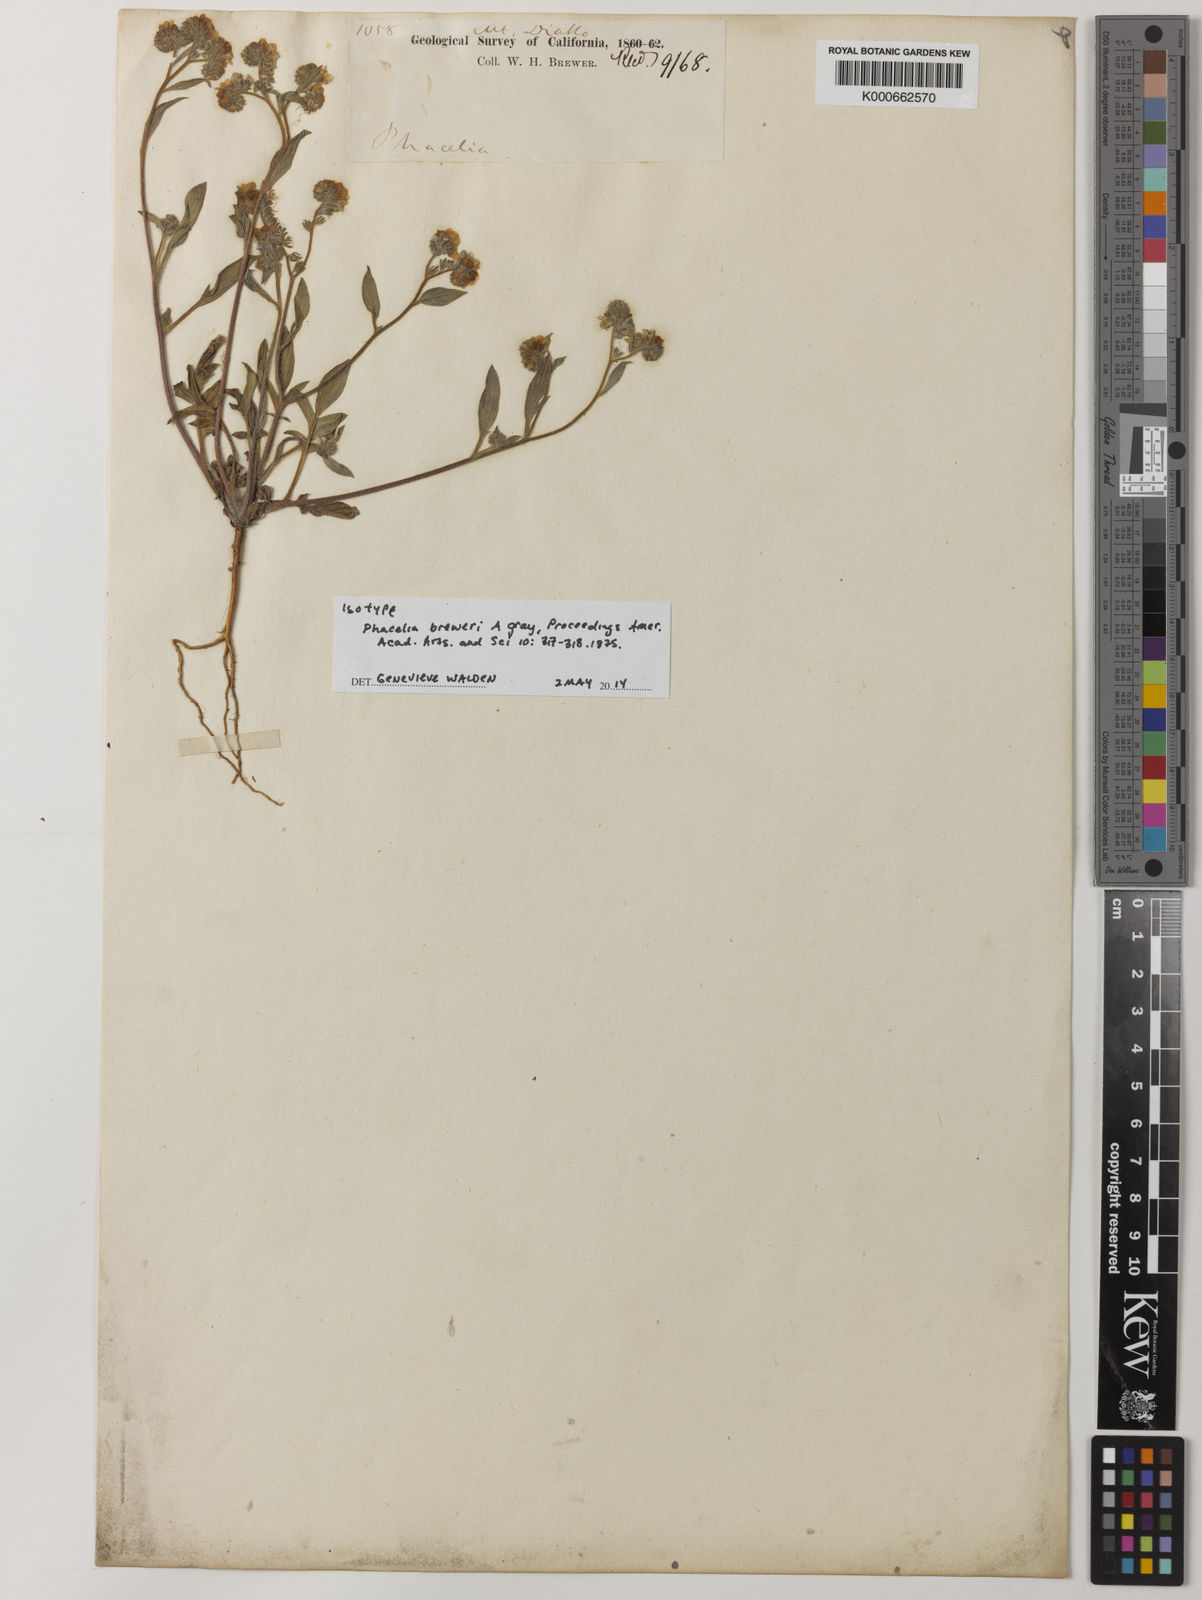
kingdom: Plantae
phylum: Tracheophyta
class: Magnoliopsida
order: Boraginales
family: Hydrophyllaceae
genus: Phacelia
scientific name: Phacelia breweri
